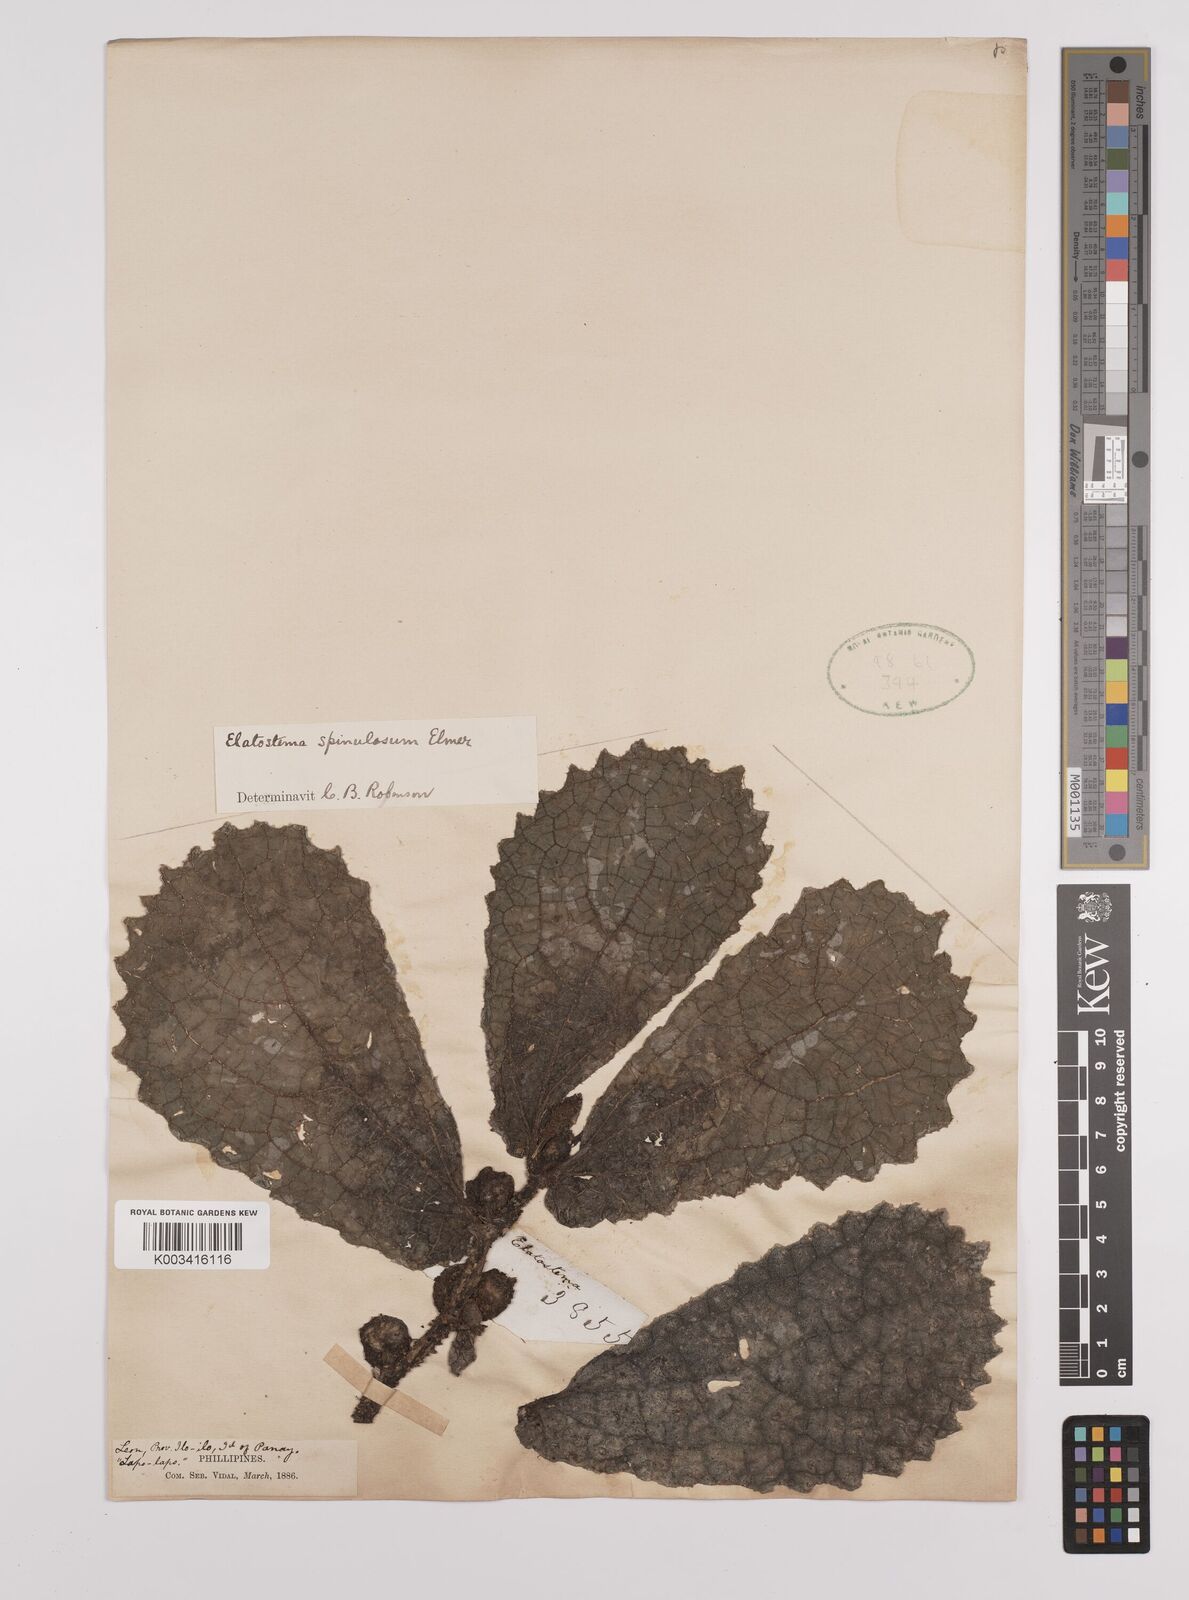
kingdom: Plantae
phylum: Tracheophyta
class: Magnoliopsida
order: Rosales
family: Urticaceae
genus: Elatostema
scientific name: Elatostema spinulosum
